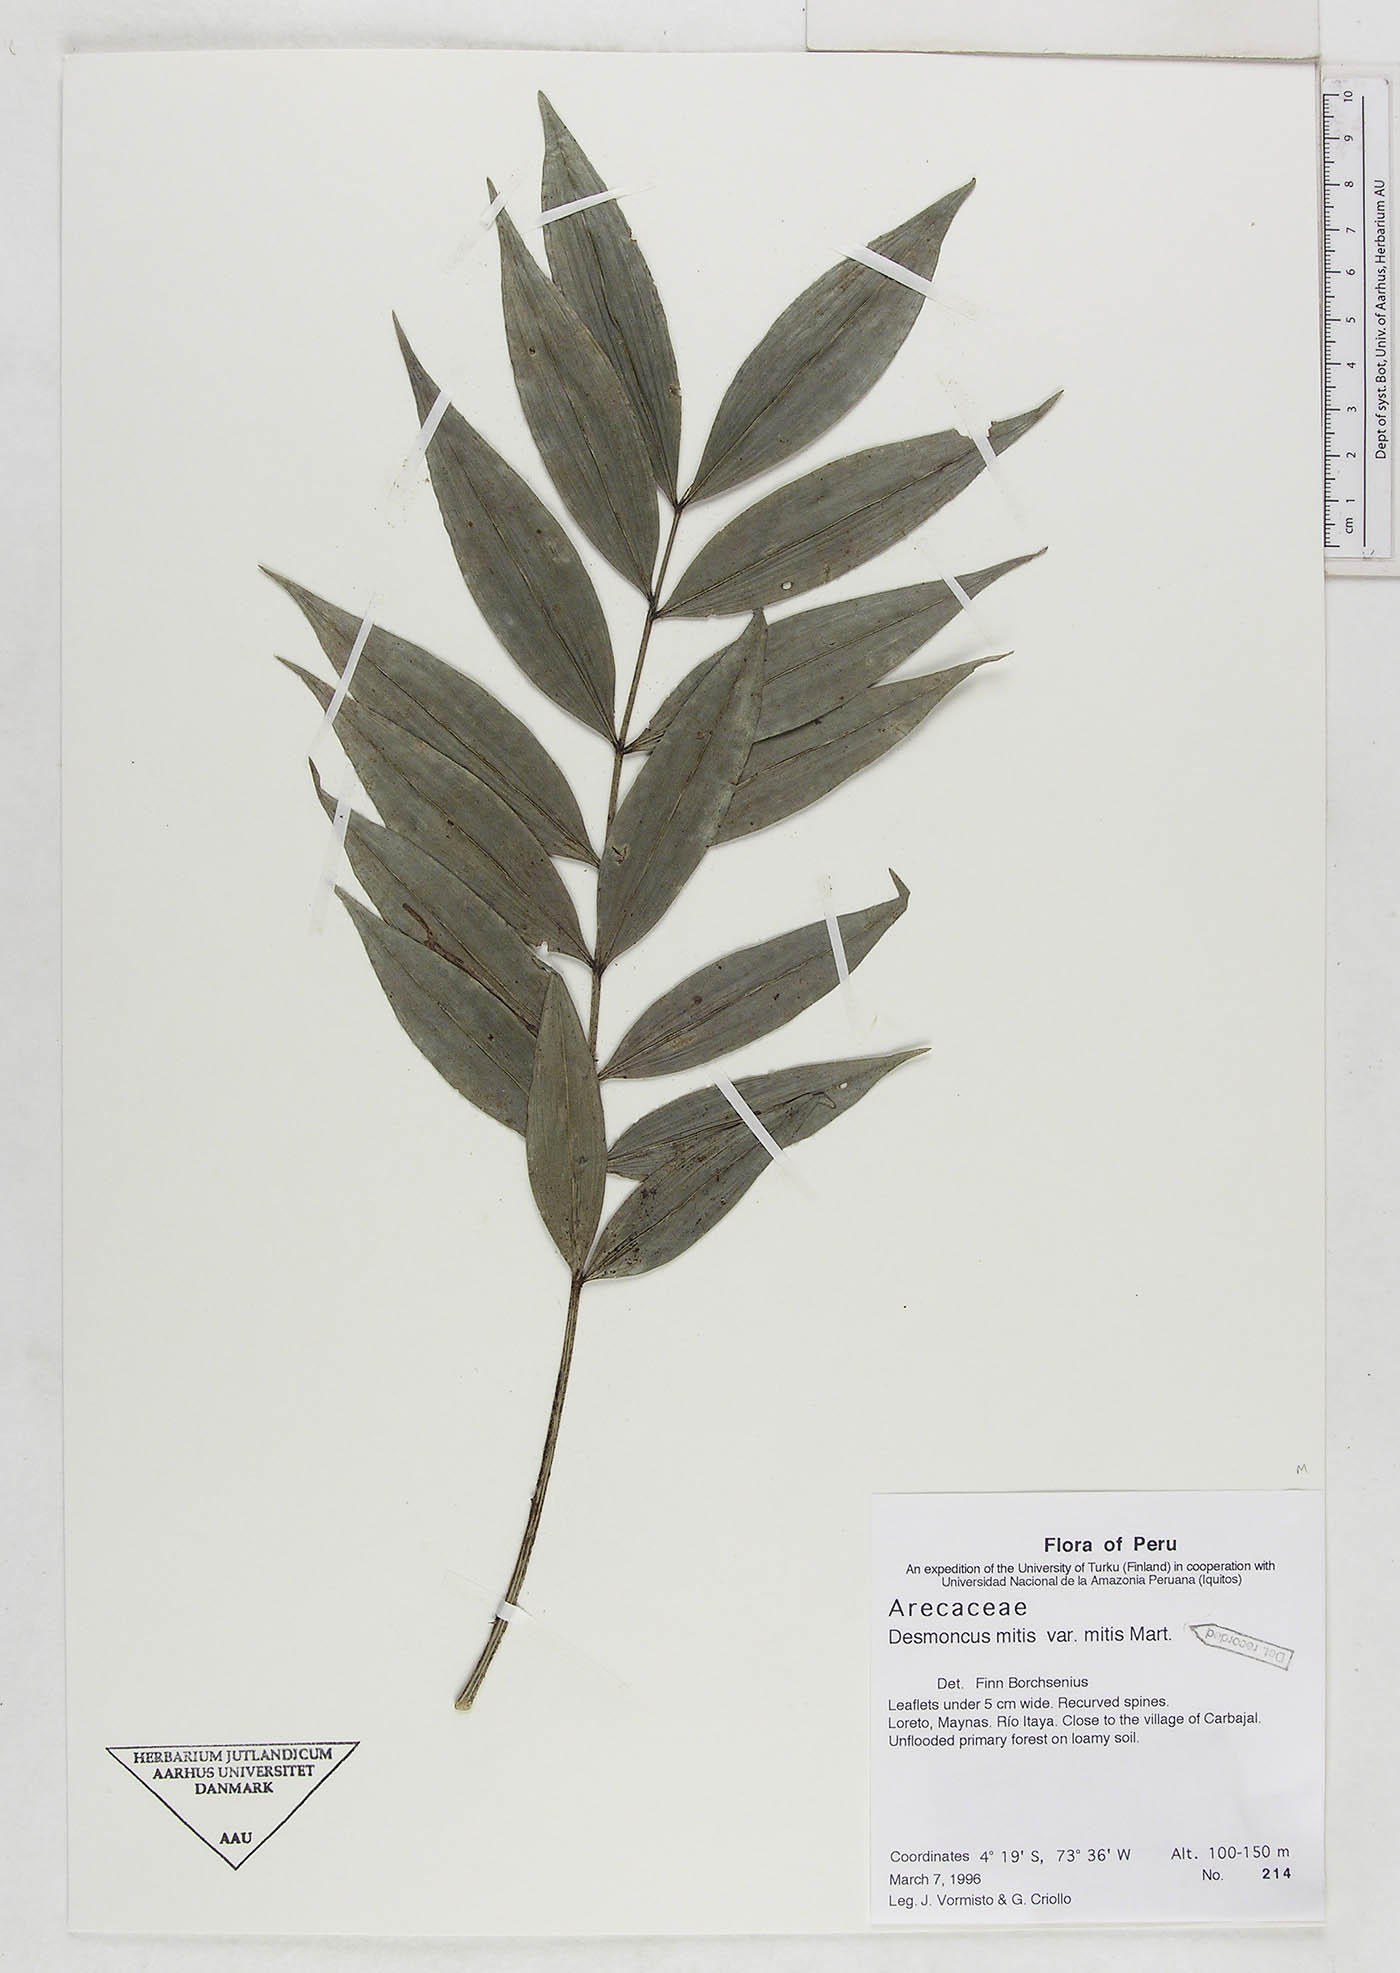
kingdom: Plantae
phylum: Tracheophyta
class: Liliopsida
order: Arecales
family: Arecaceae
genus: Desmoncus
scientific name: Desmoncus mitis
